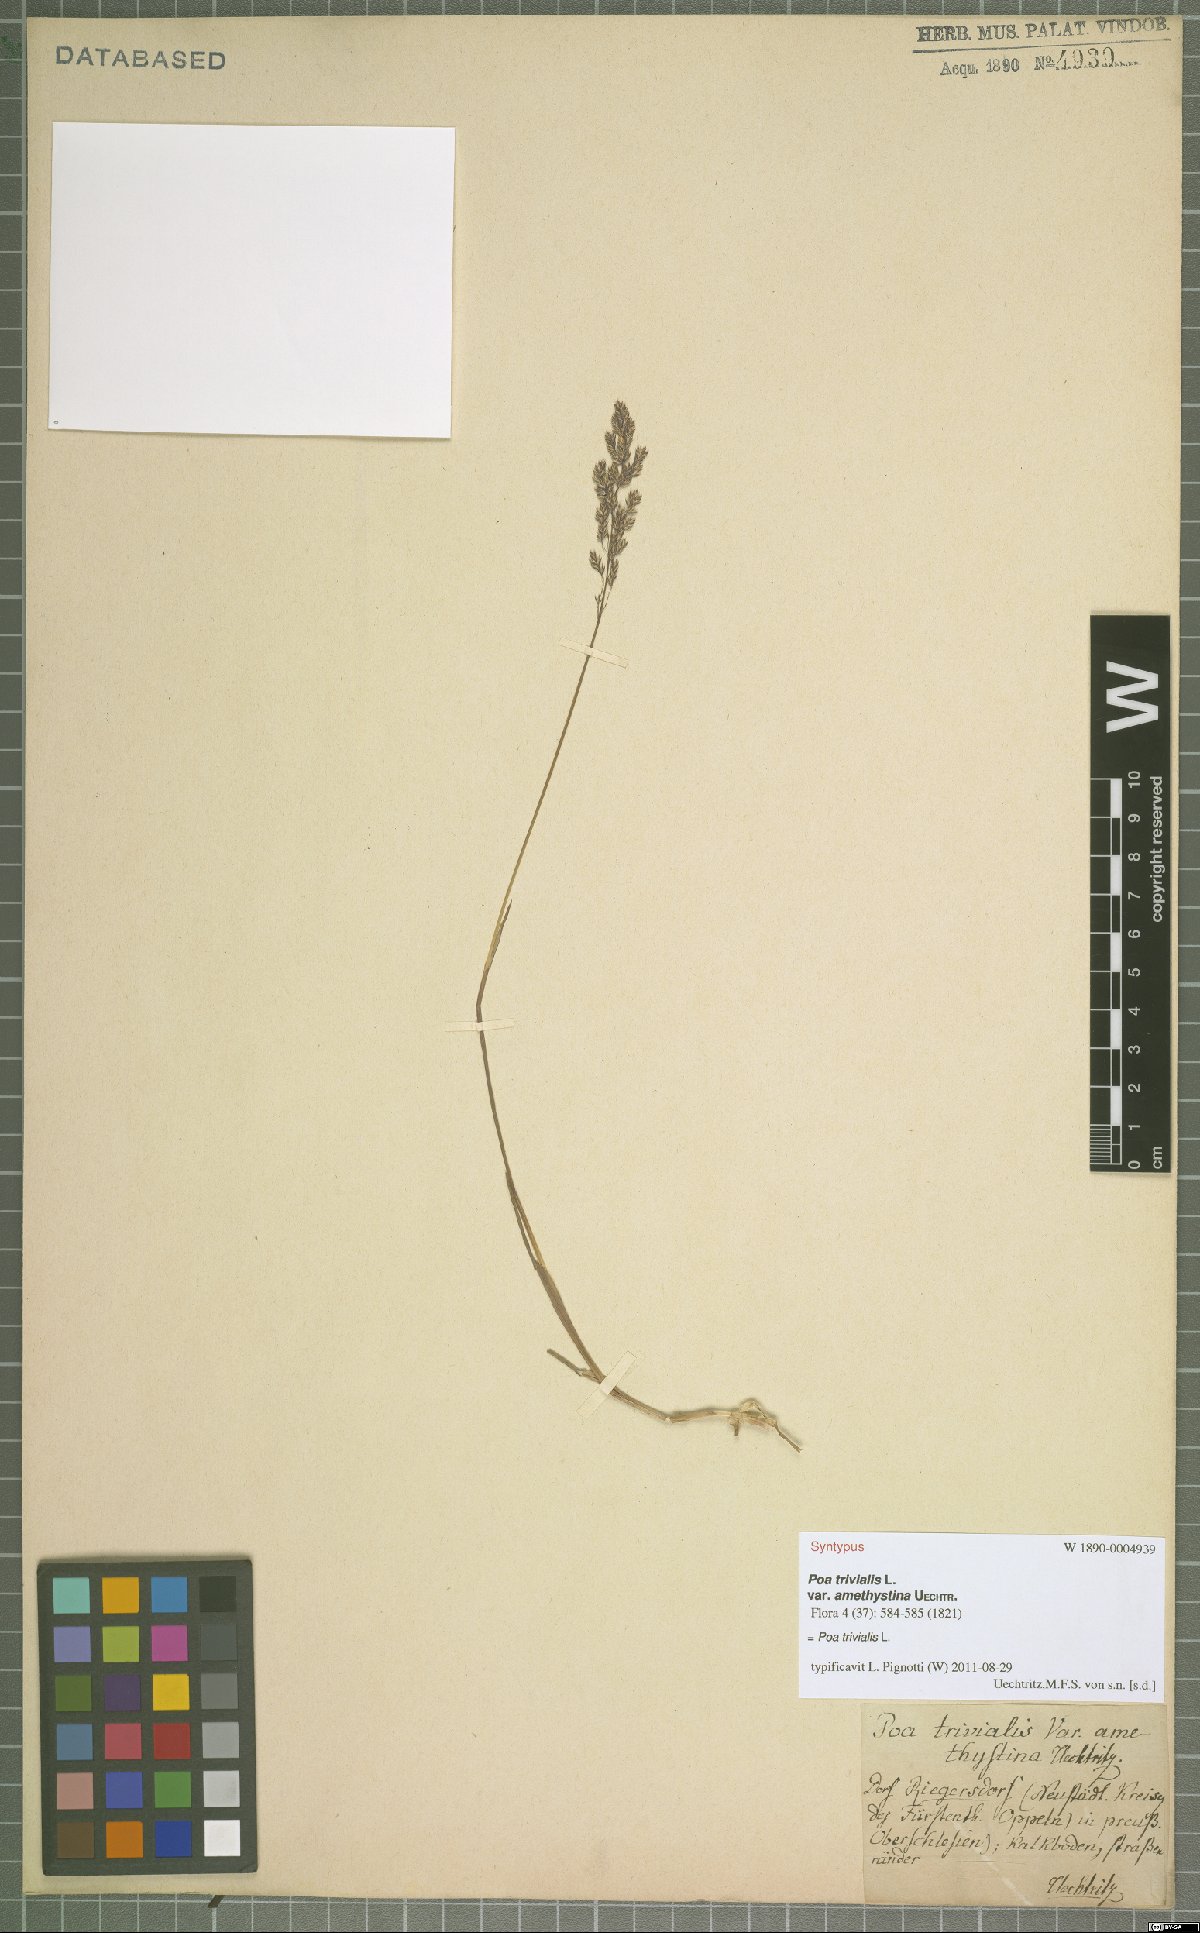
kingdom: Plantae
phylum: Tracheophyta
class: Liliopsida
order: Poales
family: Poaceae
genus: Poa
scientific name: Poa trivialis
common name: Rough bluegrass
